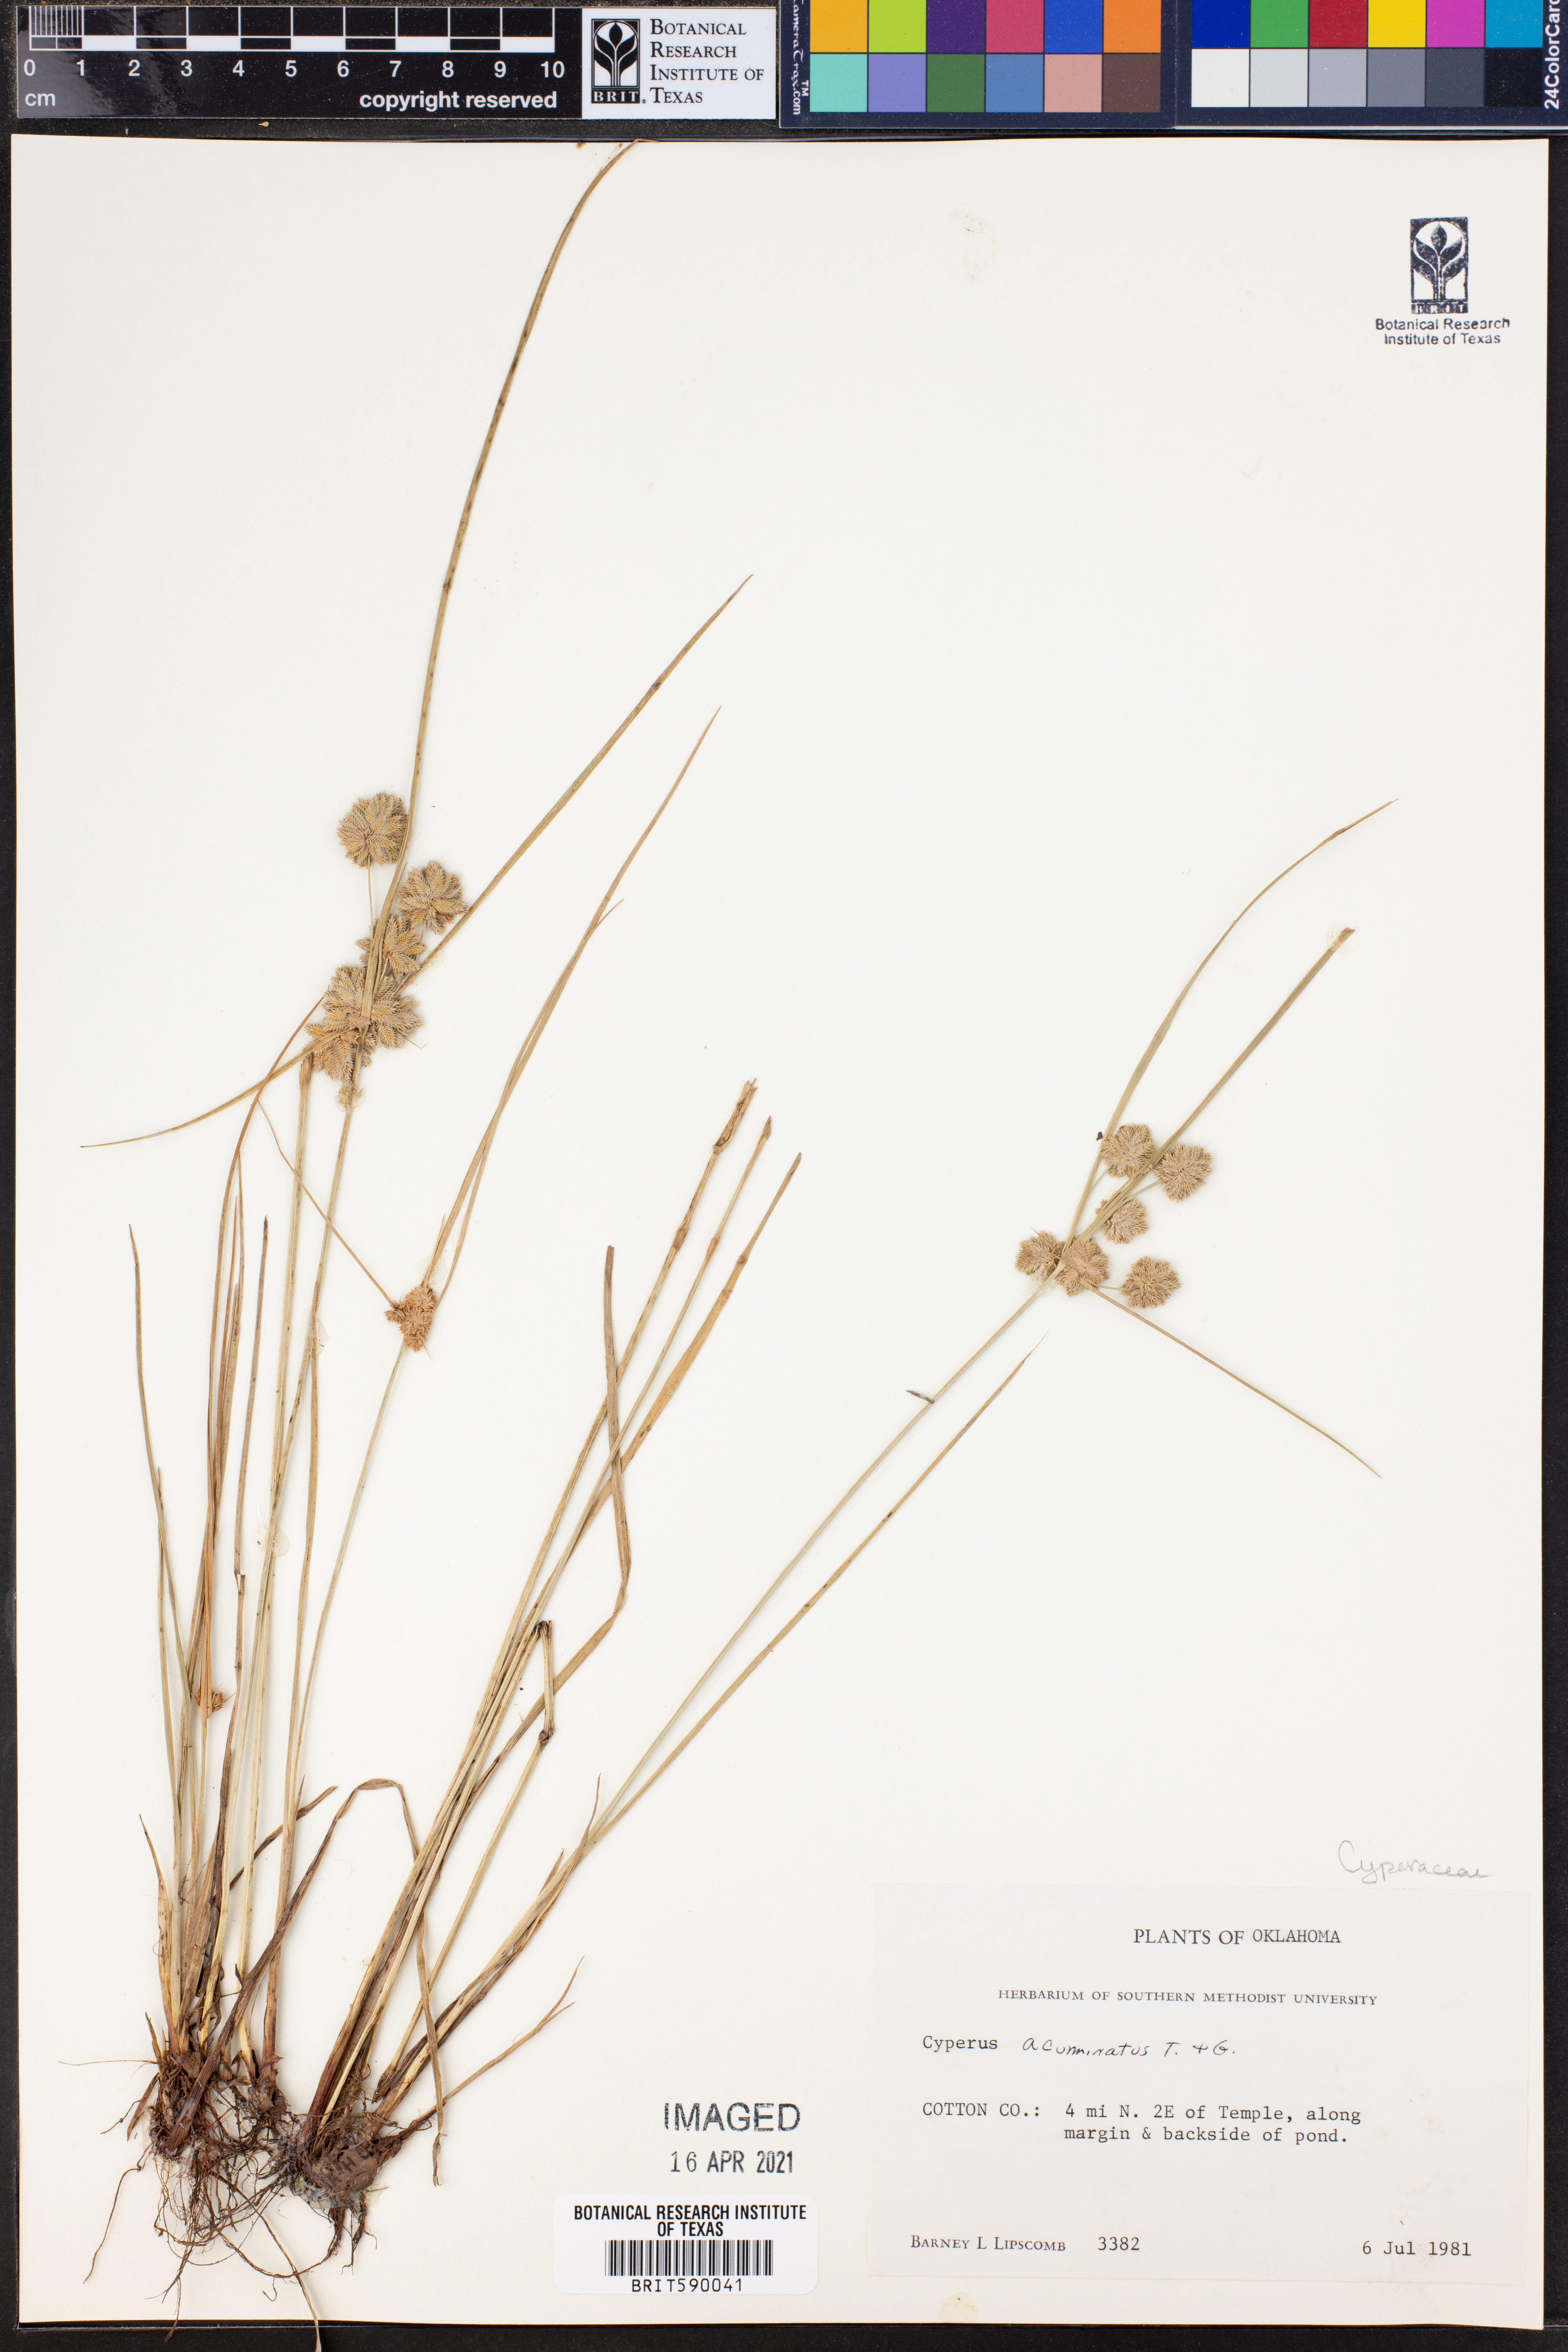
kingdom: Plantae
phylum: Tracheophyta
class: Liliopsida
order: Poales
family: Cyperaceae
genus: Cyperus
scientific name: Cyperus acuminatus
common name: Short-pointed cyperus
